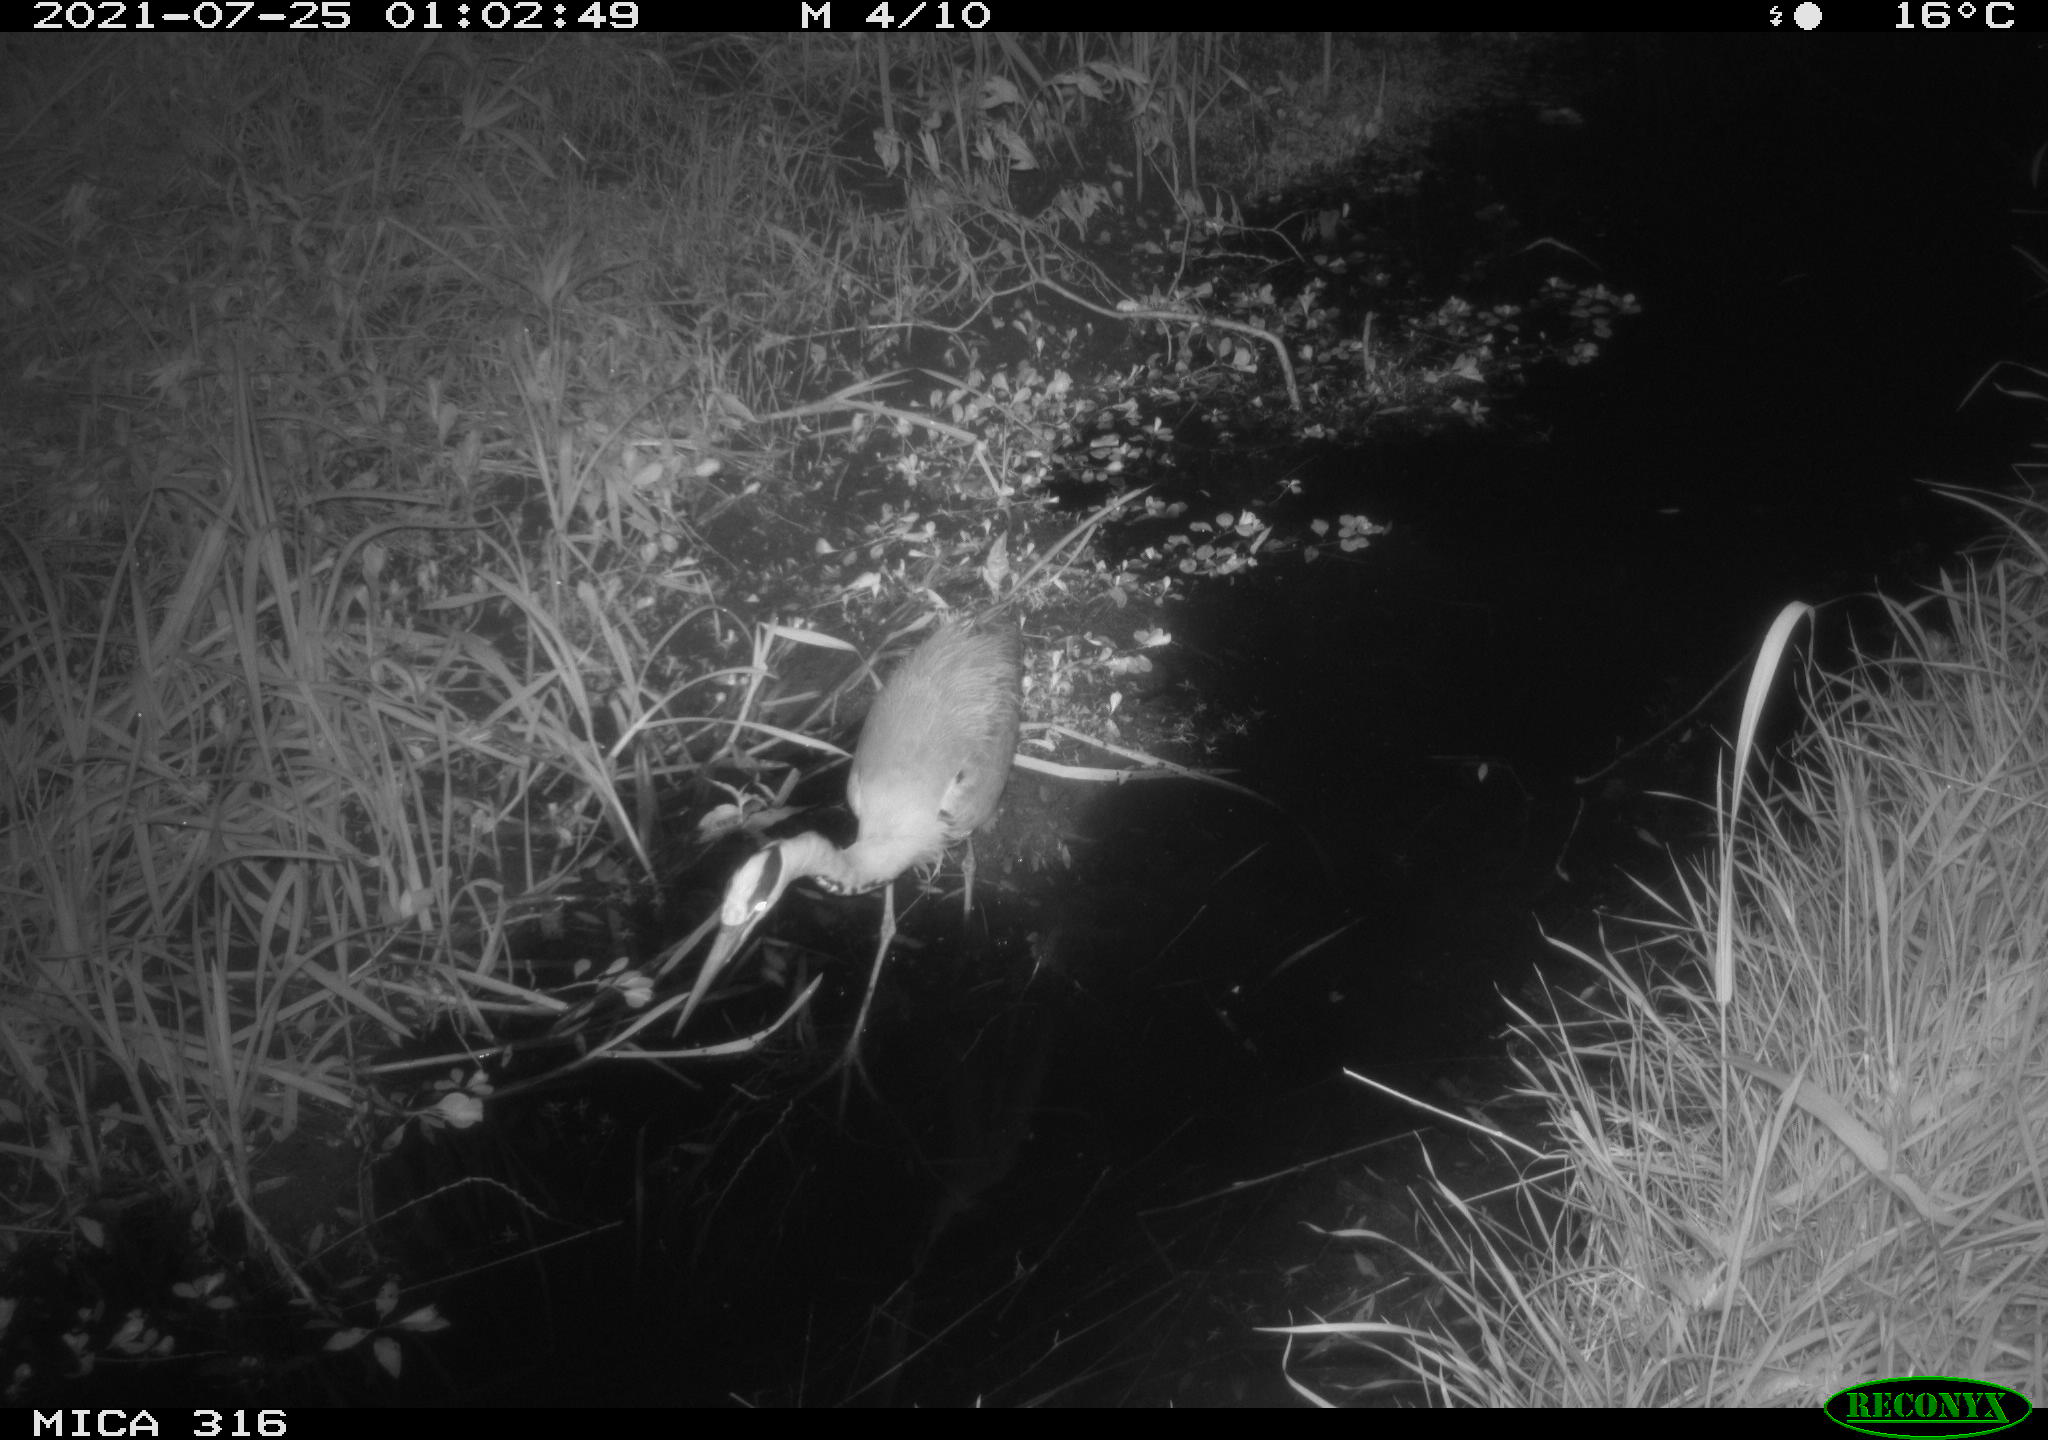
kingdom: Animalia
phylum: Chordata
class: Aves
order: Pelecaniformes
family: Ardeidae
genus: Ardea
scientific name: Ardea cinerea
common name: Grey heron
